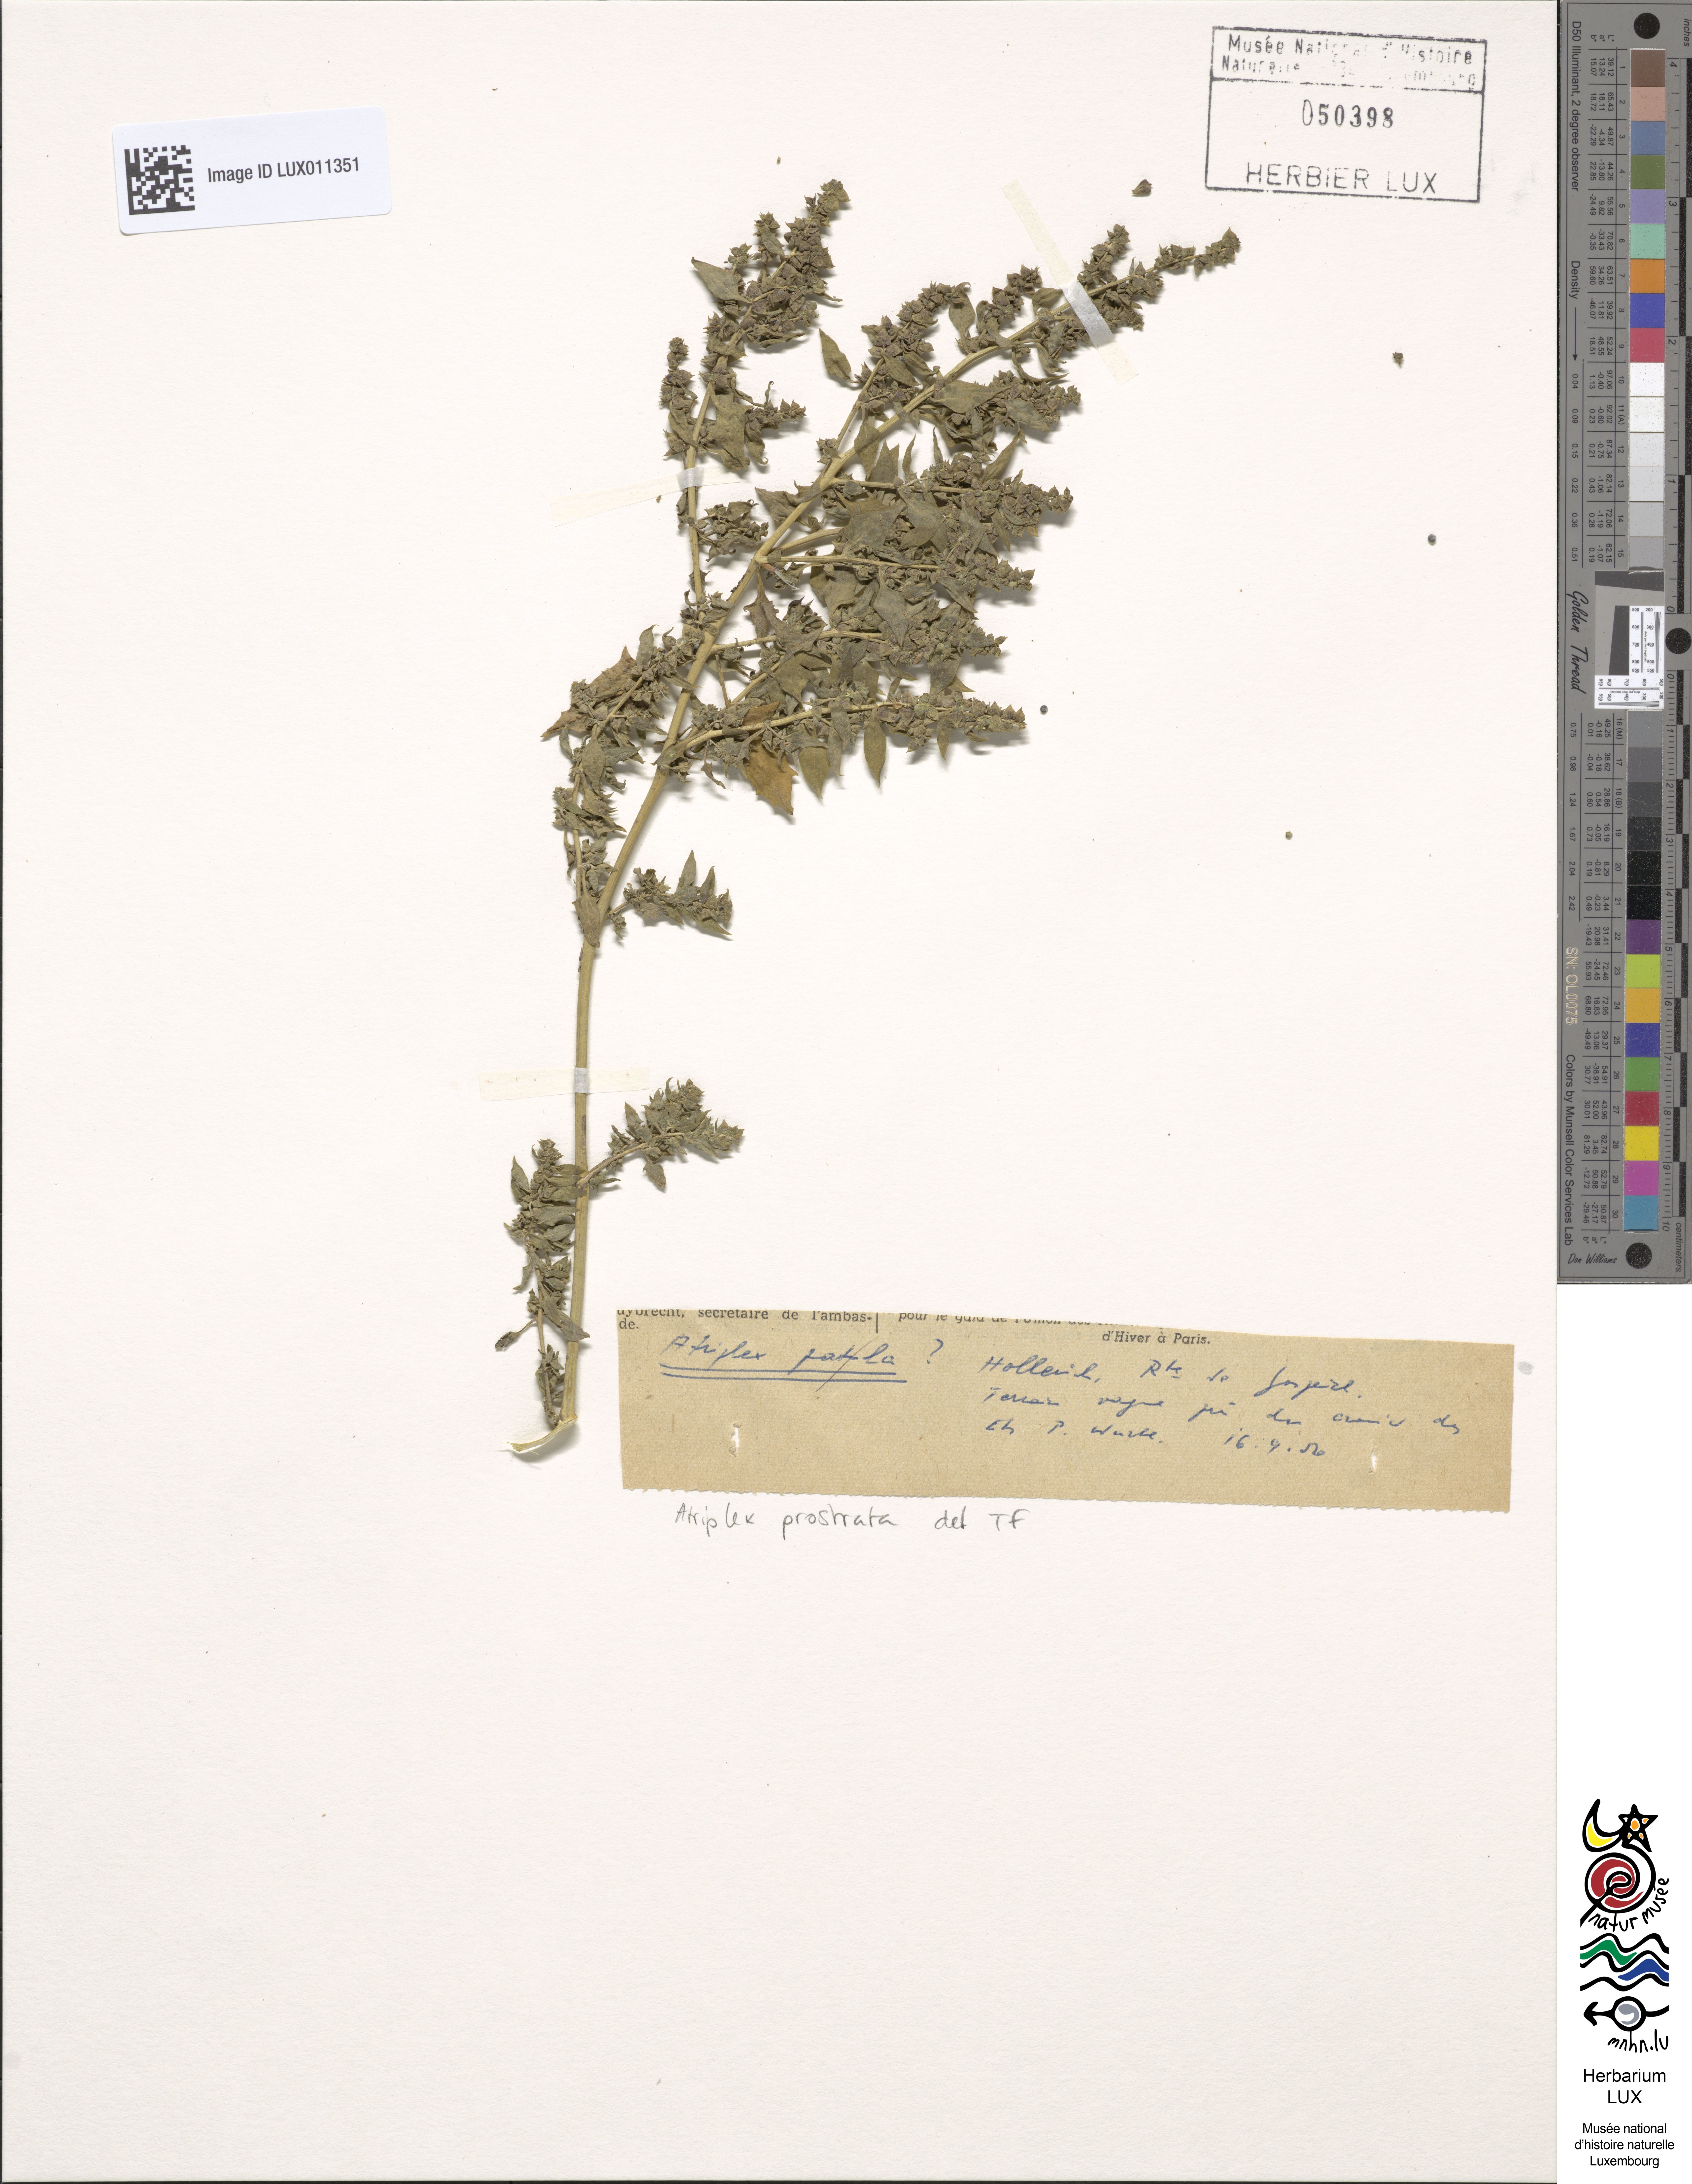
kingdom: Plantae
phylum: Tracheophyta
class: Magnoliopsida
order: Caryophyllales
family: Amaranthaceae
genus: Atriplex
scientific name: Atriplex prostrata
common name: Spear-leaved orache
